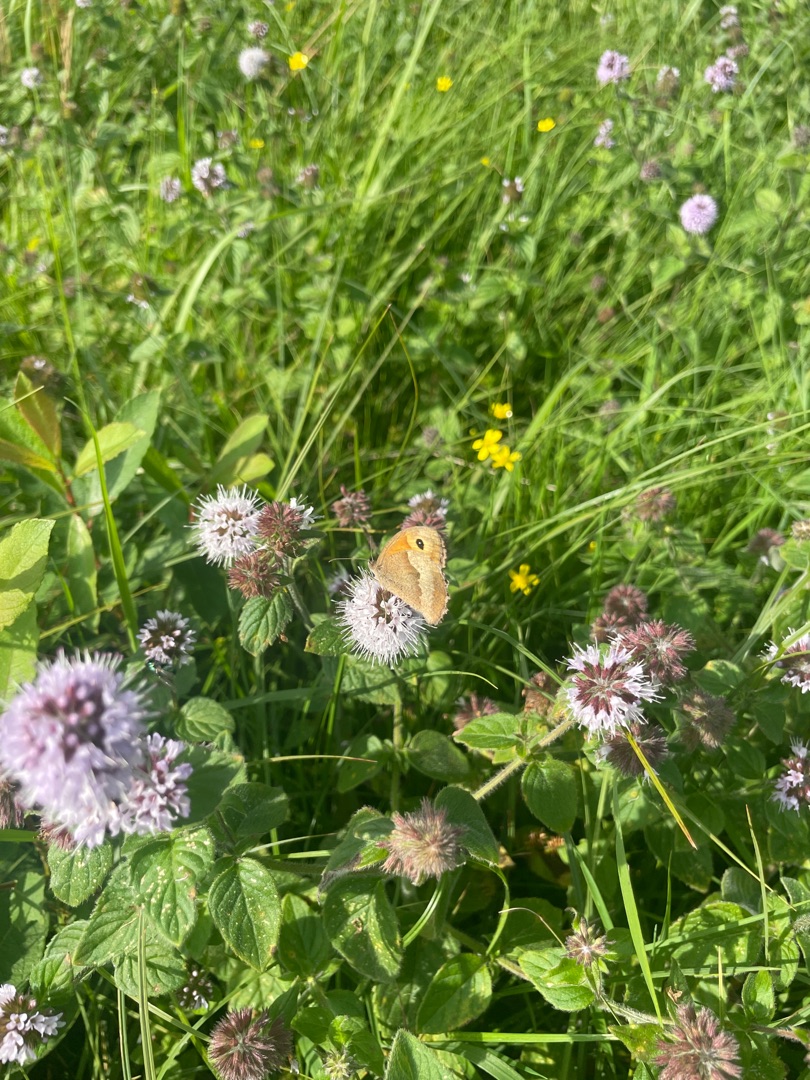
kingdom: Animalia
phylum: Arthropoda
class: Insecta
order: Lepidoptera
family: Nymphalidae
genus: Maniola
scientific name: Maniola jurtina
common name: Græsrandøje
